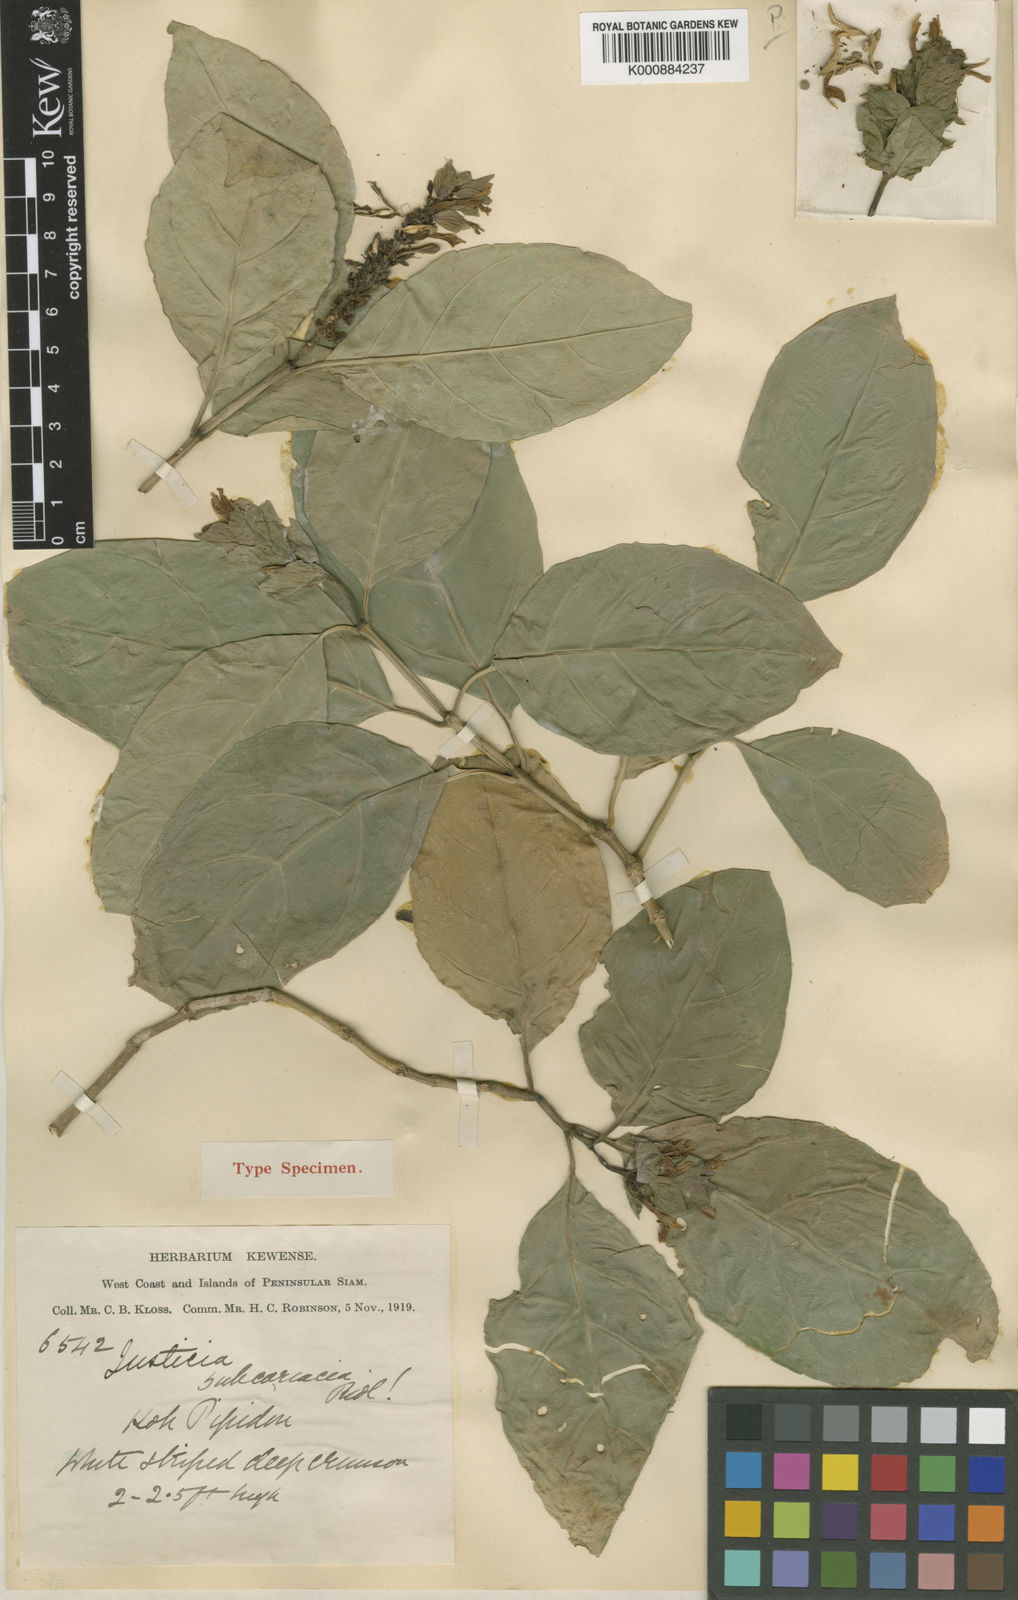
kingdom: Plantae
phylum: Tracheophyta
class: Magnoliopsida
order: Lamiales
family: Acanthaceae
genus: Justicia
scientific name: Justicia subcoriacea
